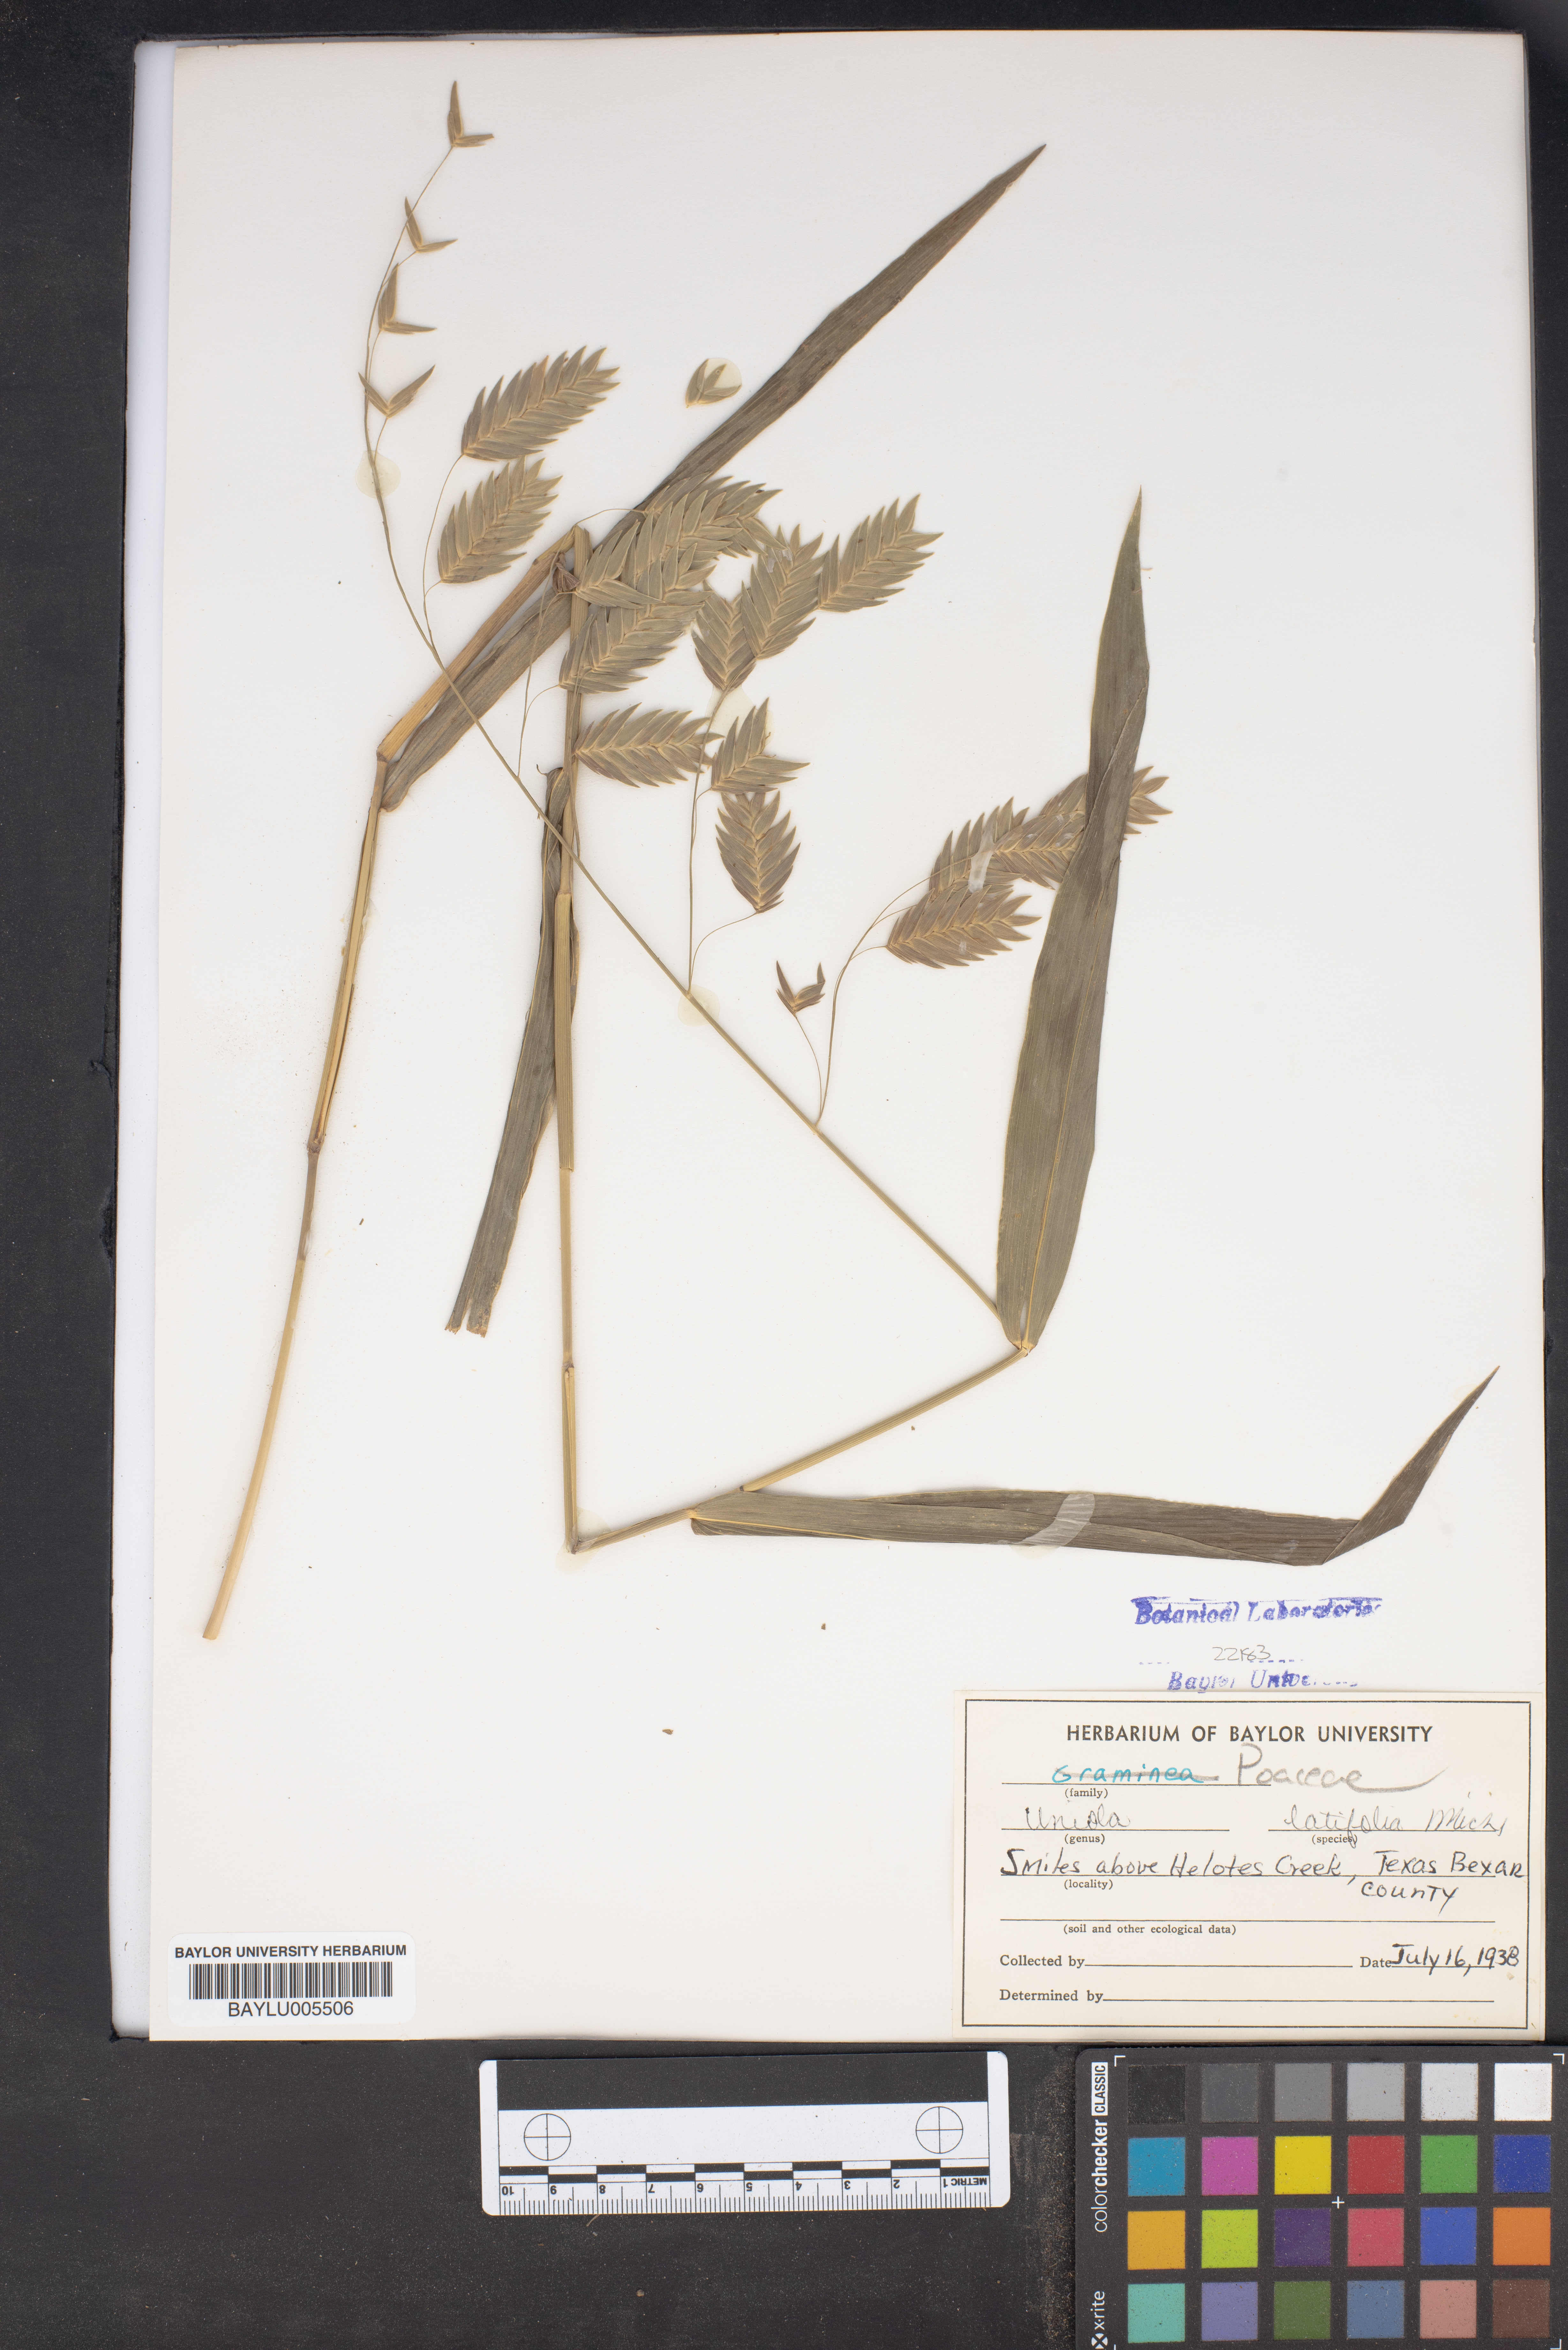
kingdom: Plantae
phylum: Tracheophyta
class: Liliopsida
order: Poales
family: Poaceae
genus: Chasmanthium
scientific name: Chasmanthium latifolium
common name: Broad-leaved chasmanthium
